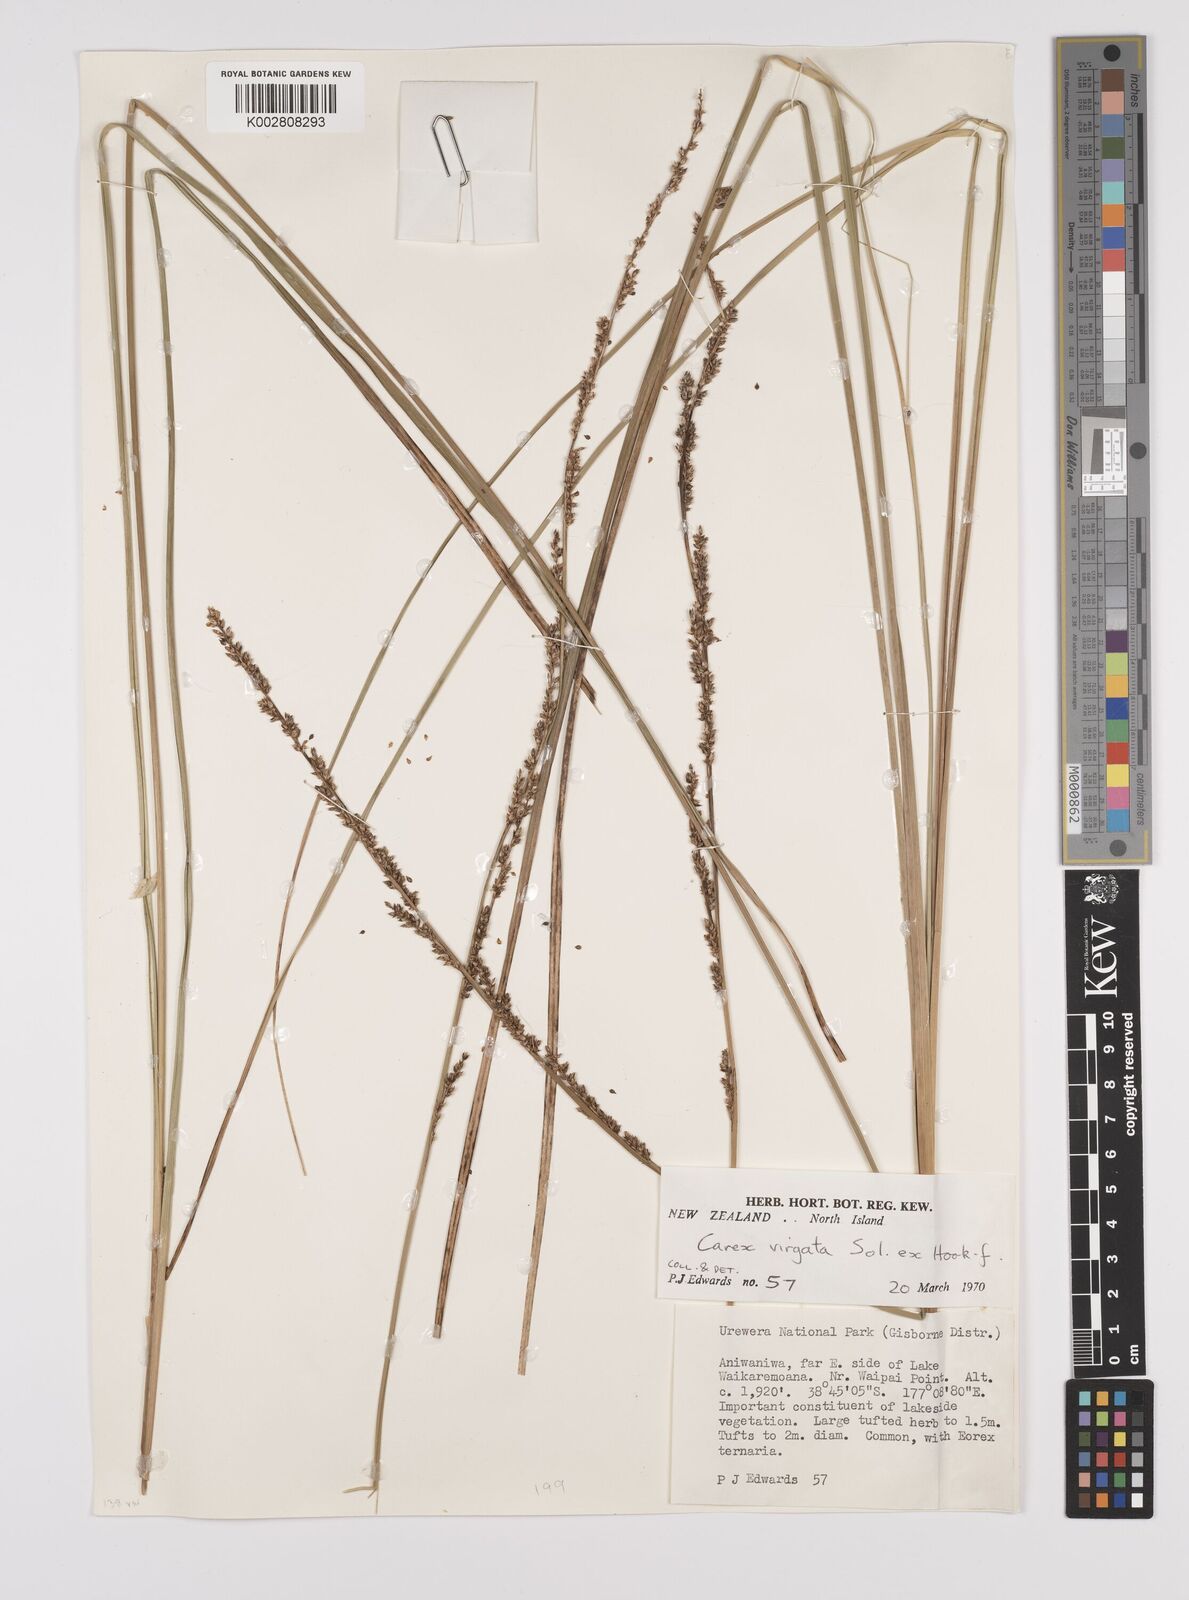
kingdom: Plantae
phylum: Tracheophyta
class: Liliopsida
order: Poales
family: Cyperaceae
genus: Carex
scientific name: Carex appressa
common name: Tussock sedge
